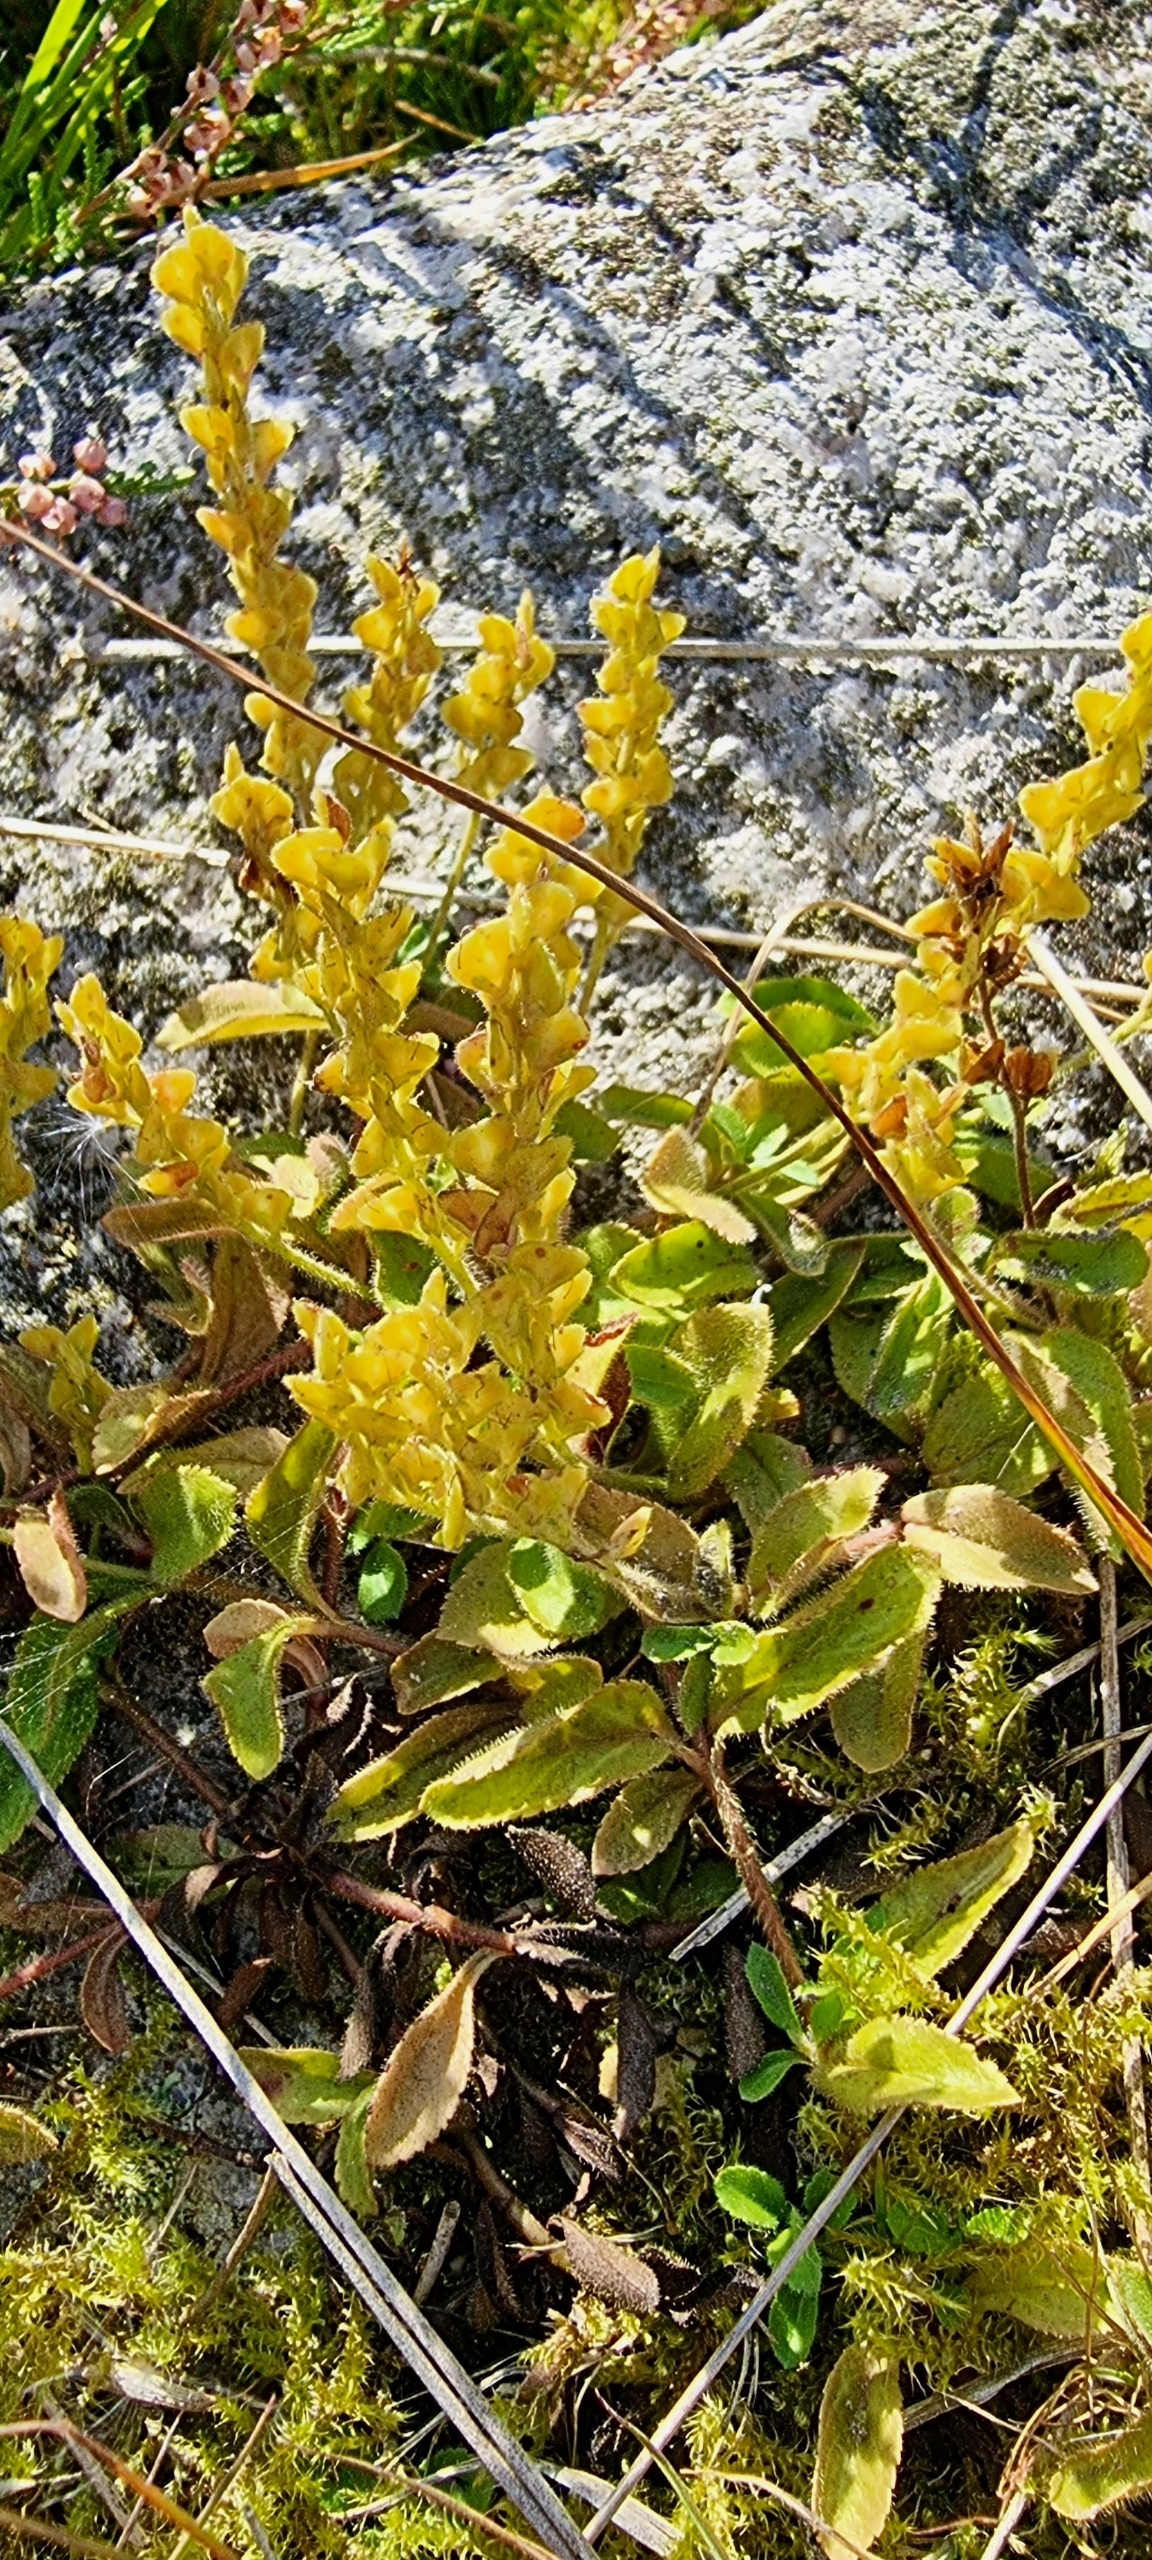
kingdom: Plantae
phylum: Tracheophyta
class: Magnoliopsida
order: Lamiales
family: Plantaginaceae
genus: Veronica
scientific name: Veronica officinalis
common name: Læge-ærenpris
